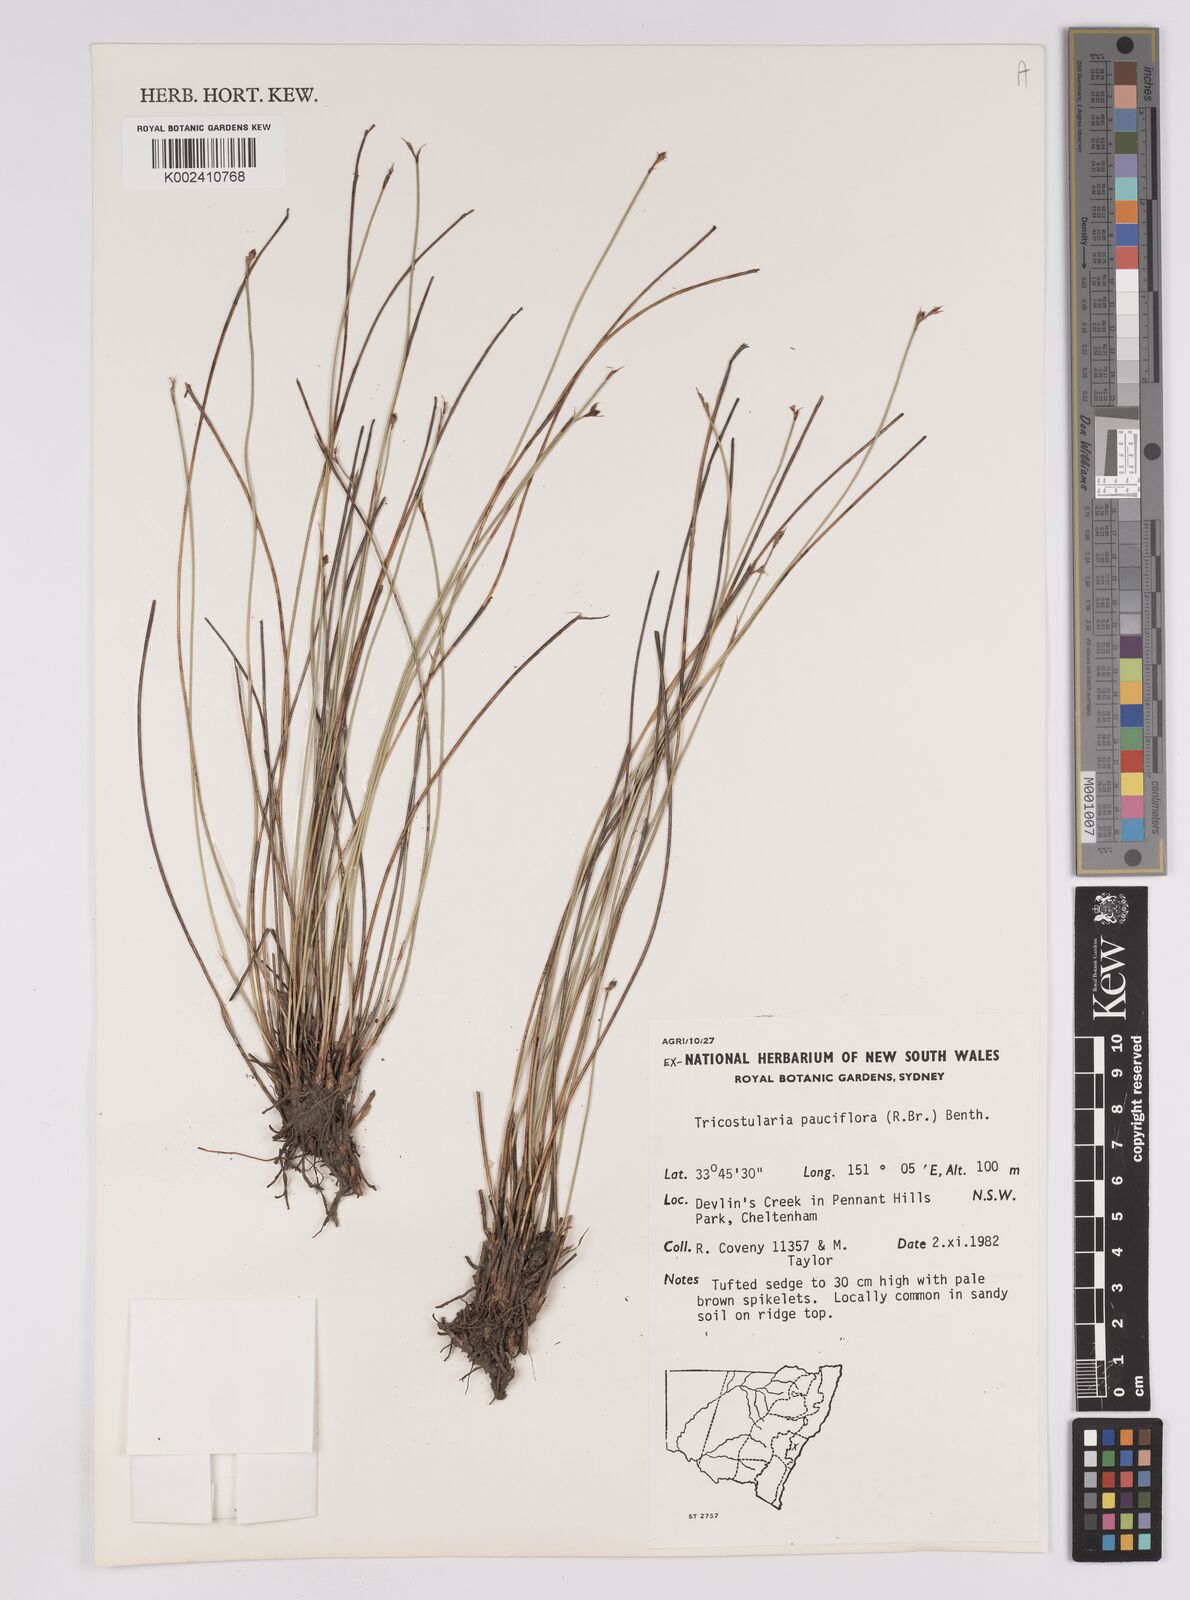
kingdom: Plantae
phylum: Tracheophyta
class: Liliopsida
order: Poales
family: Cyperaceae
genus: Tricostularia
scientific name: Tricostularia pauciflora
